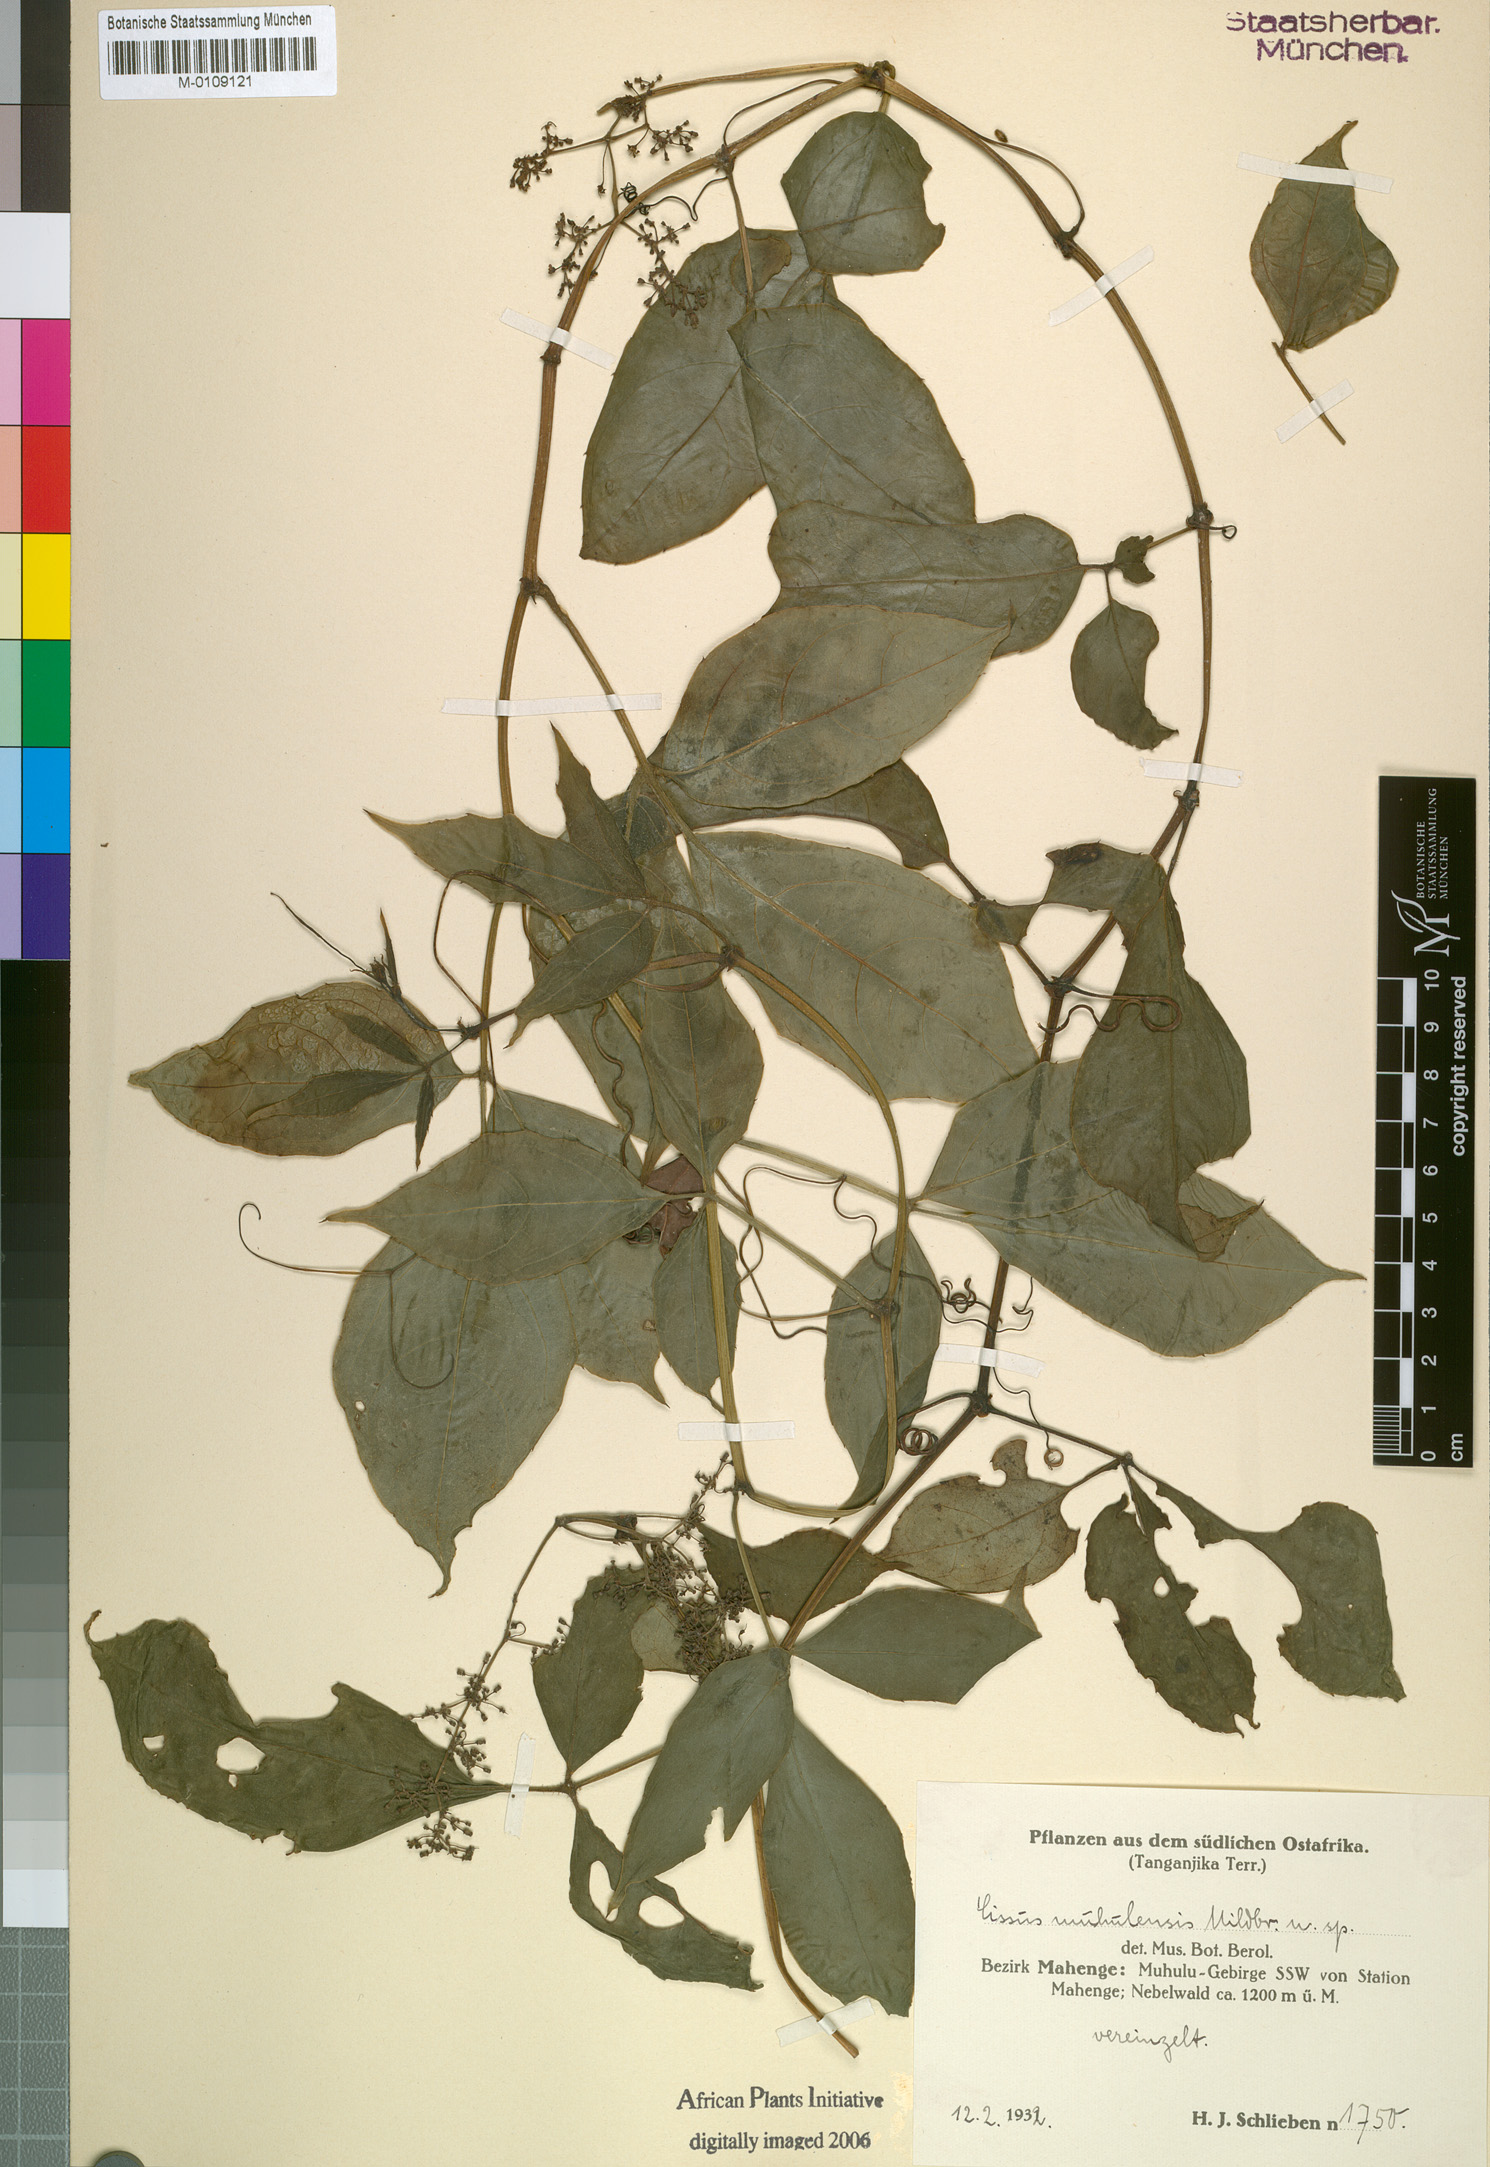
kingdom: Plantae
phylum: Tracheophyta
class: Magnoliopsida
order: Vitales
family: Vitaceae
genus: Cyphostemma
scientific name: Cyphostemma muhuluense
